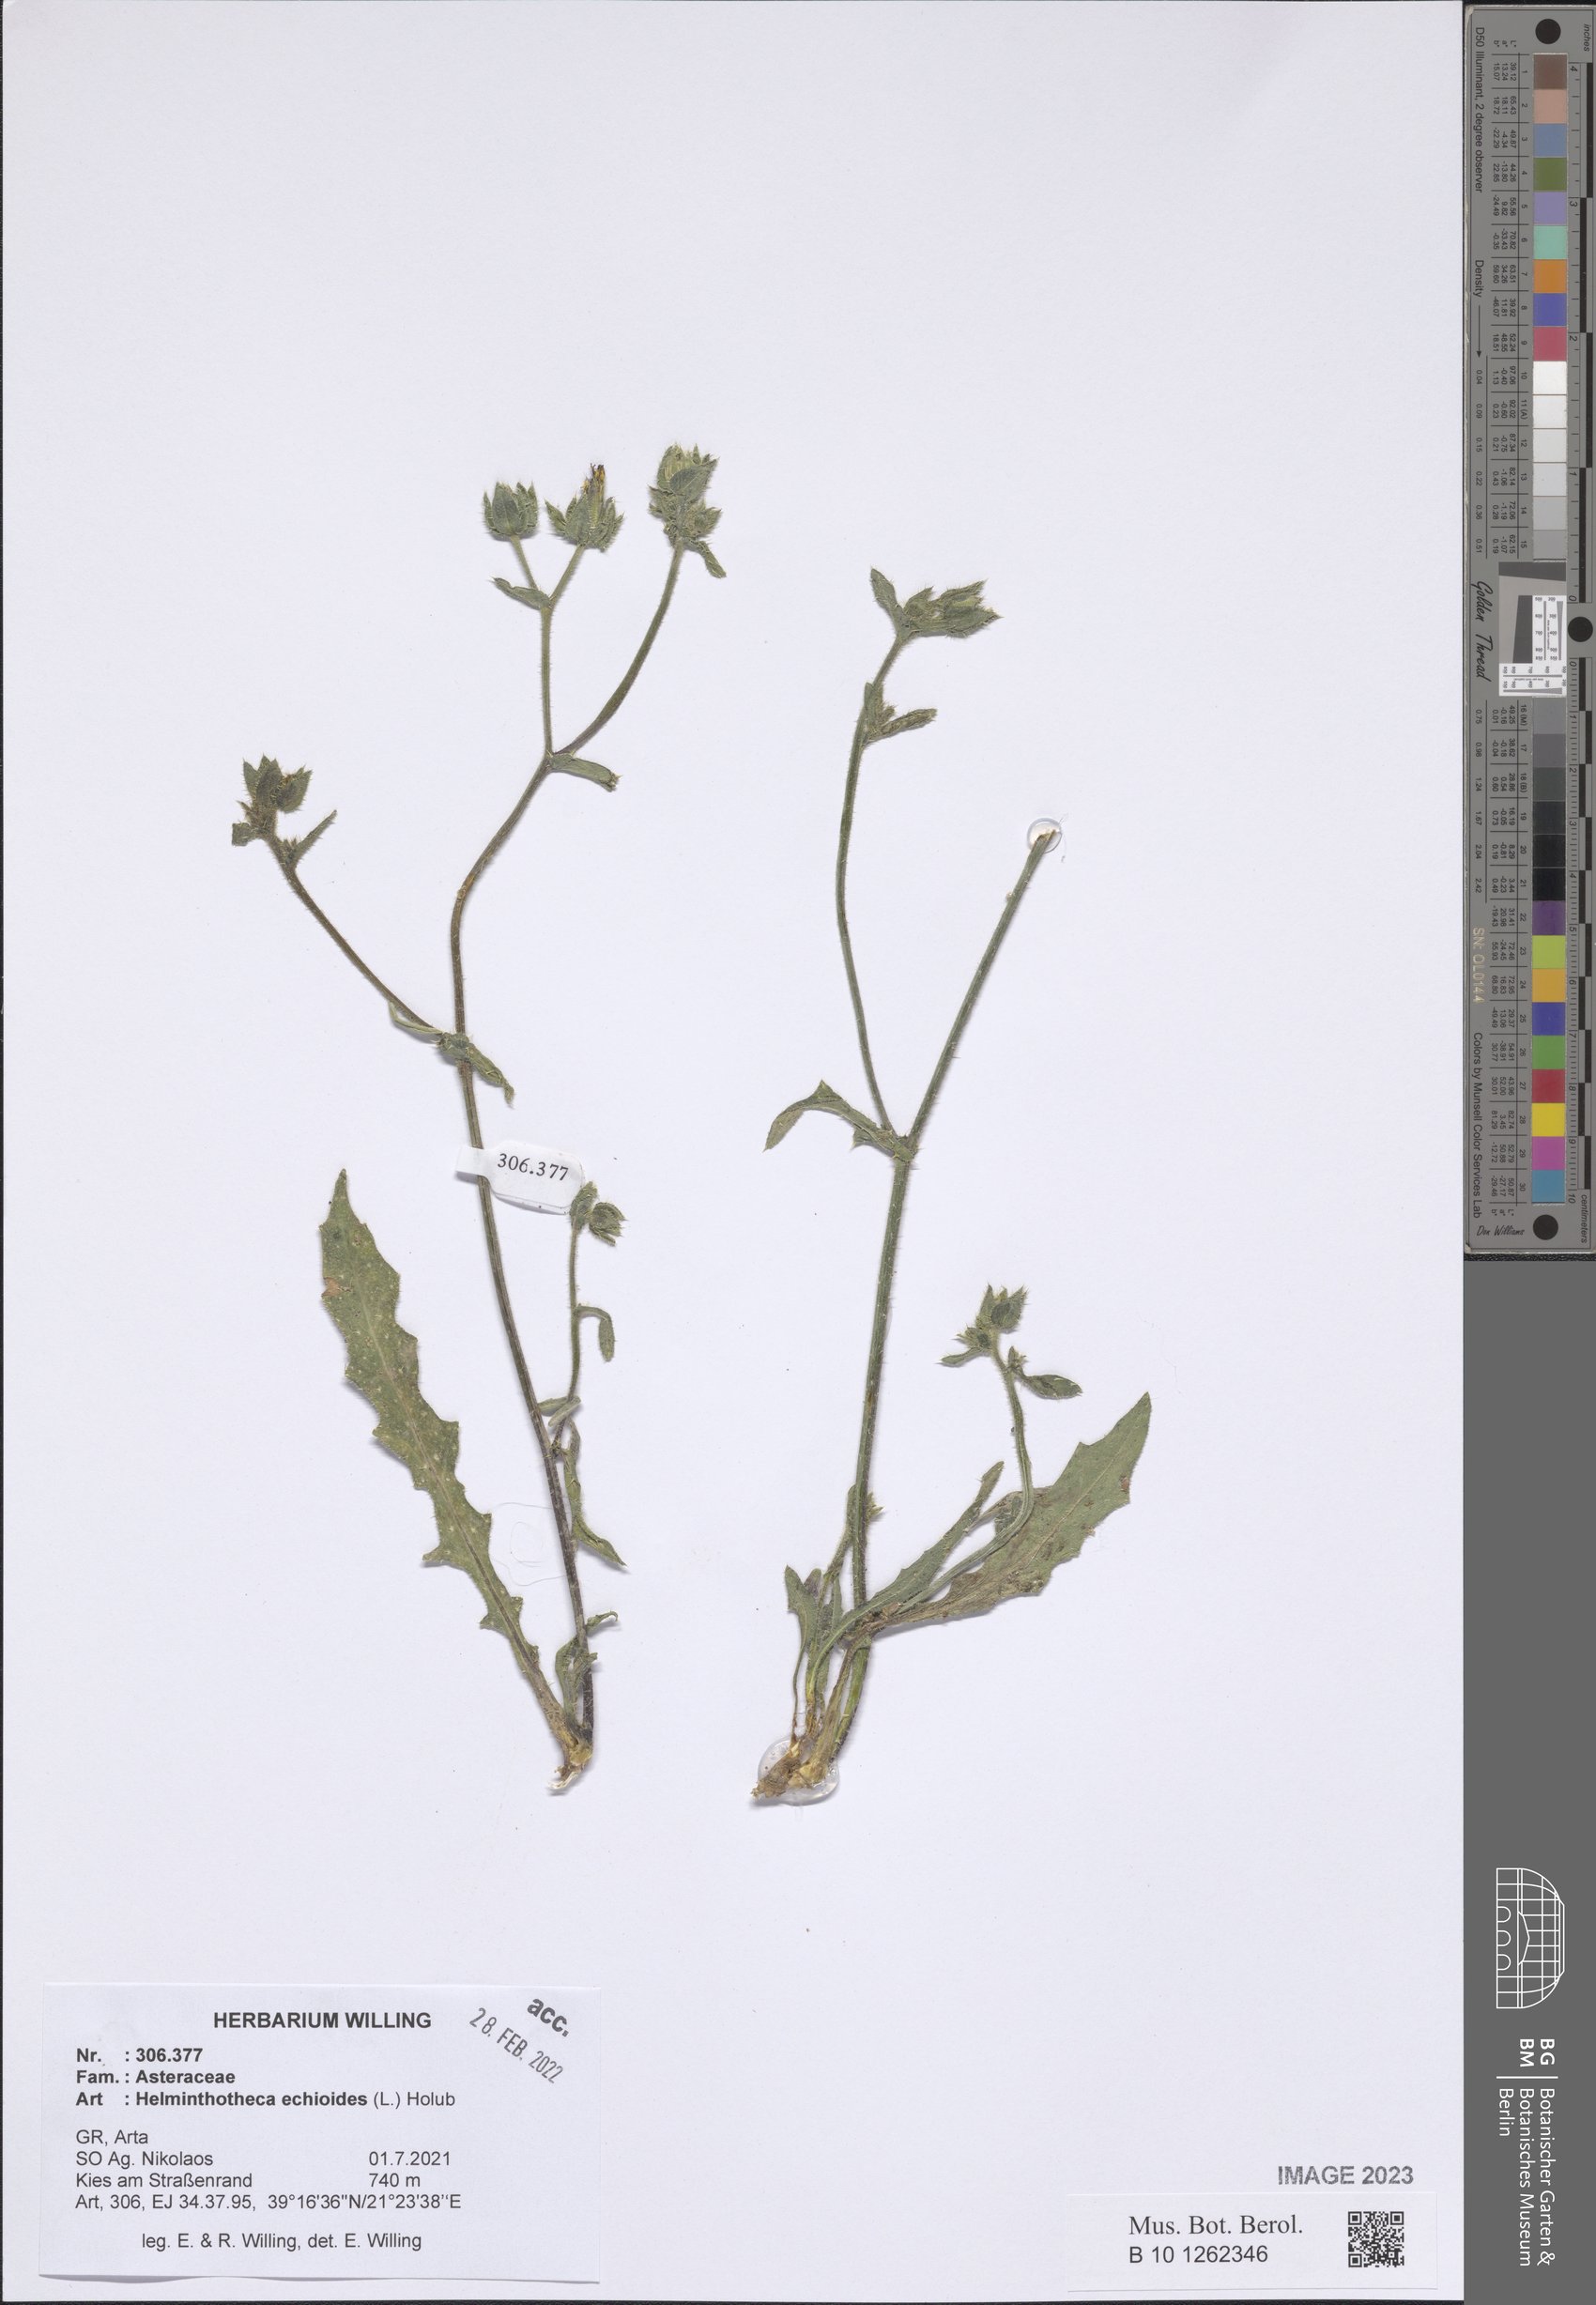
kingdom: Plantae
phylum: Tracheophyta
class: Magnoliopsida
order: Asterales
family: Asteraceae
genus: Helminthotheca
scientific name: Helminthotheca echioides
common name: Ox-tongue
